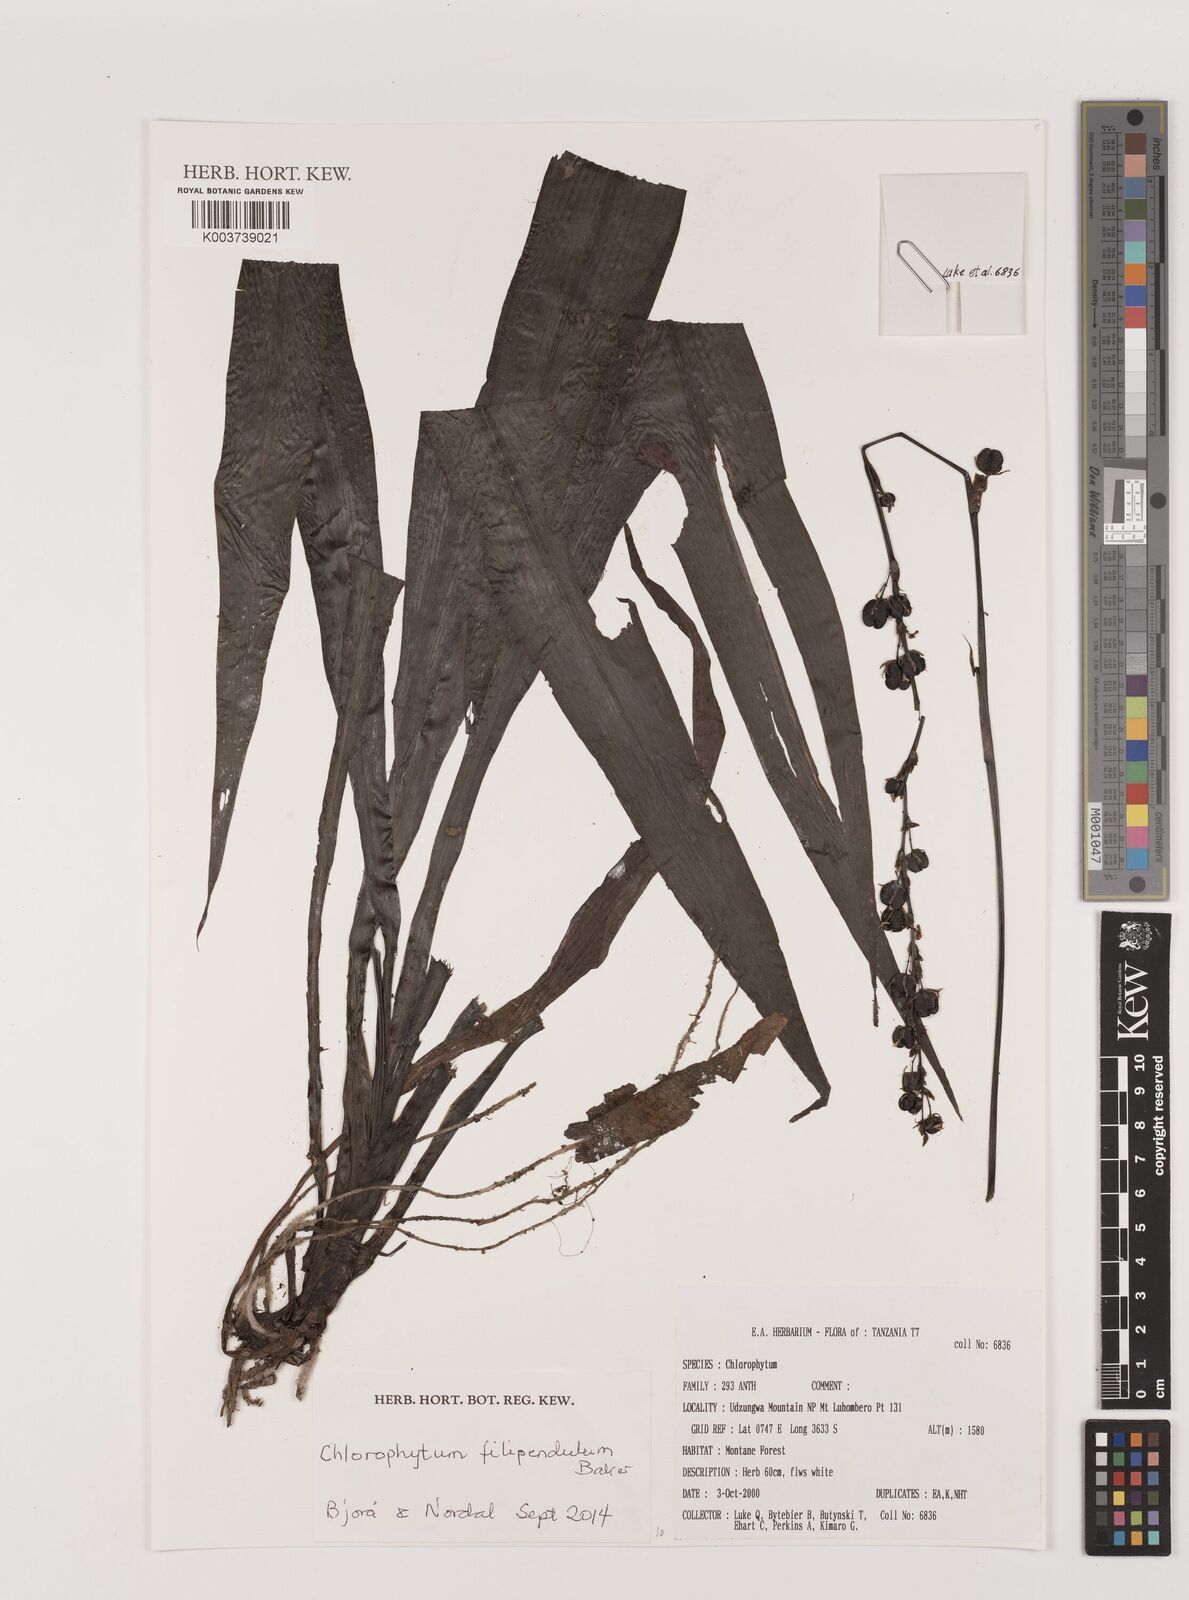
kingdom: Plantae
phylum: Tracheophyta
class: Liliopsida
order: Asparagales
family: Asparagaceae
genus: Chlorophytum
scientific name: Chlorophytum filipendulum
